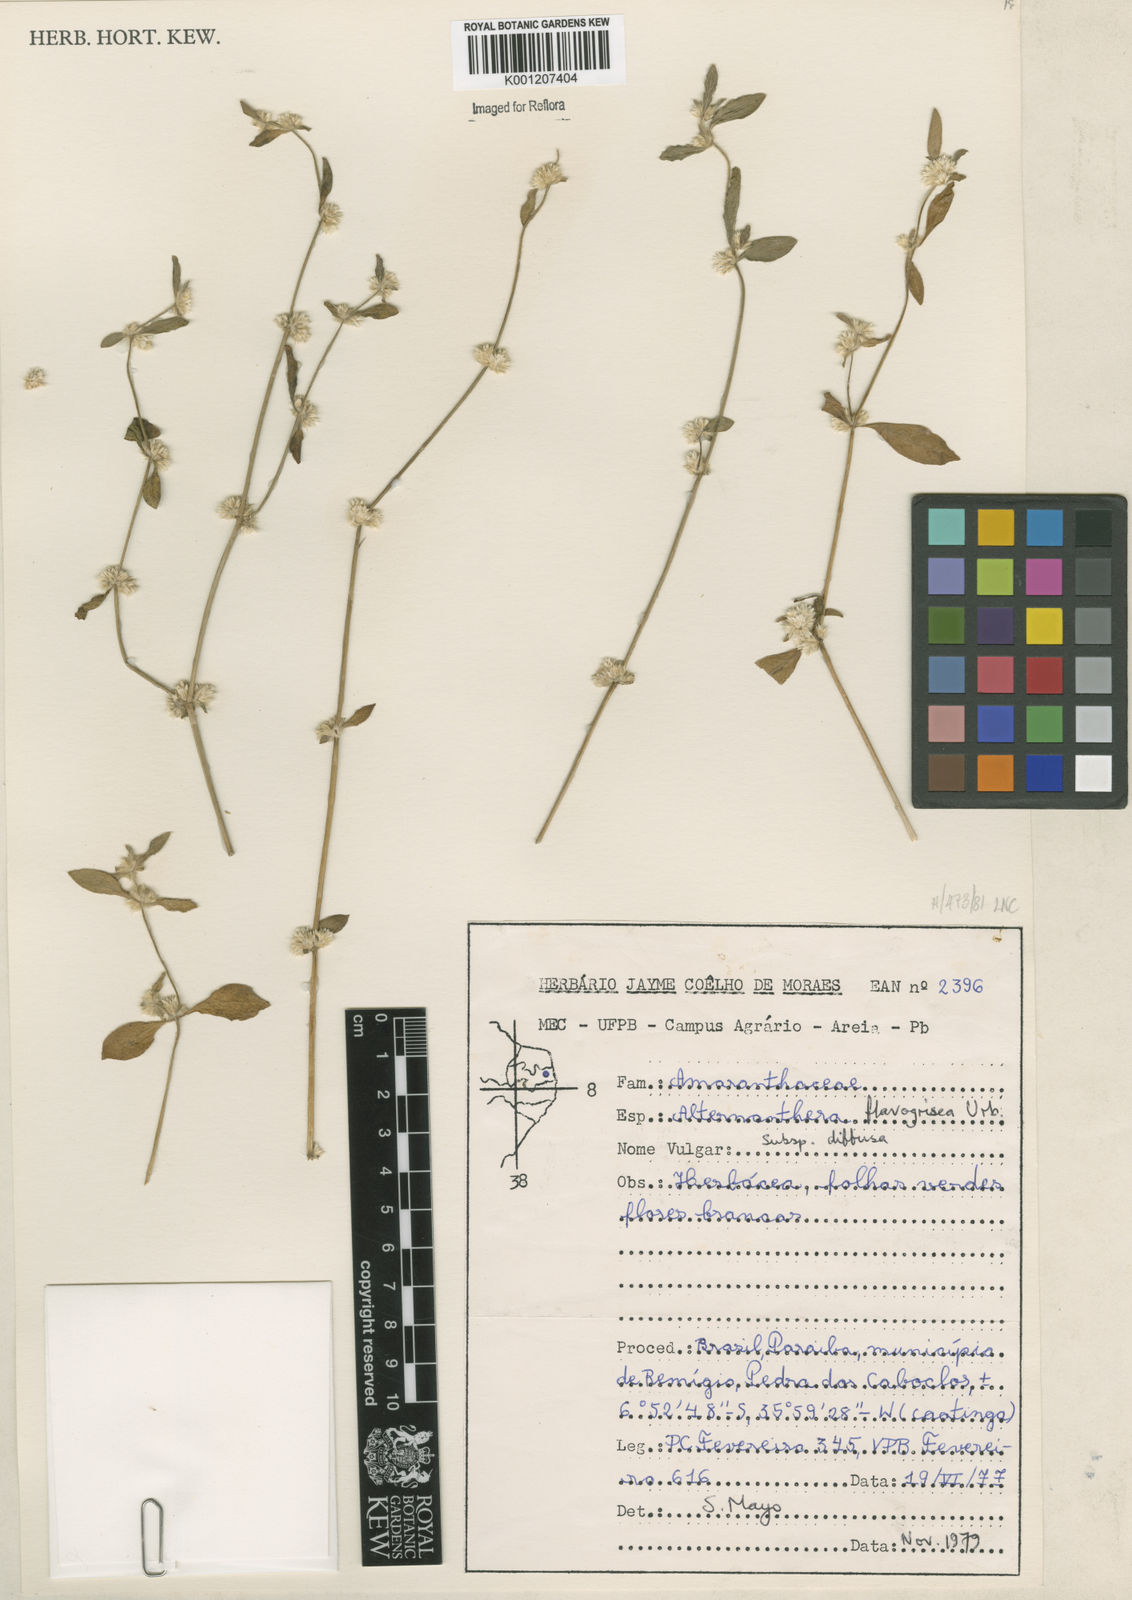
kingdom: Plantae
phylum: Tracheophyta
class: Magnoliopsida
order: Caryophyllales
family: Amaranthaceae
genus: Alternanthera
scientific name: Alternanthera halimifolia
